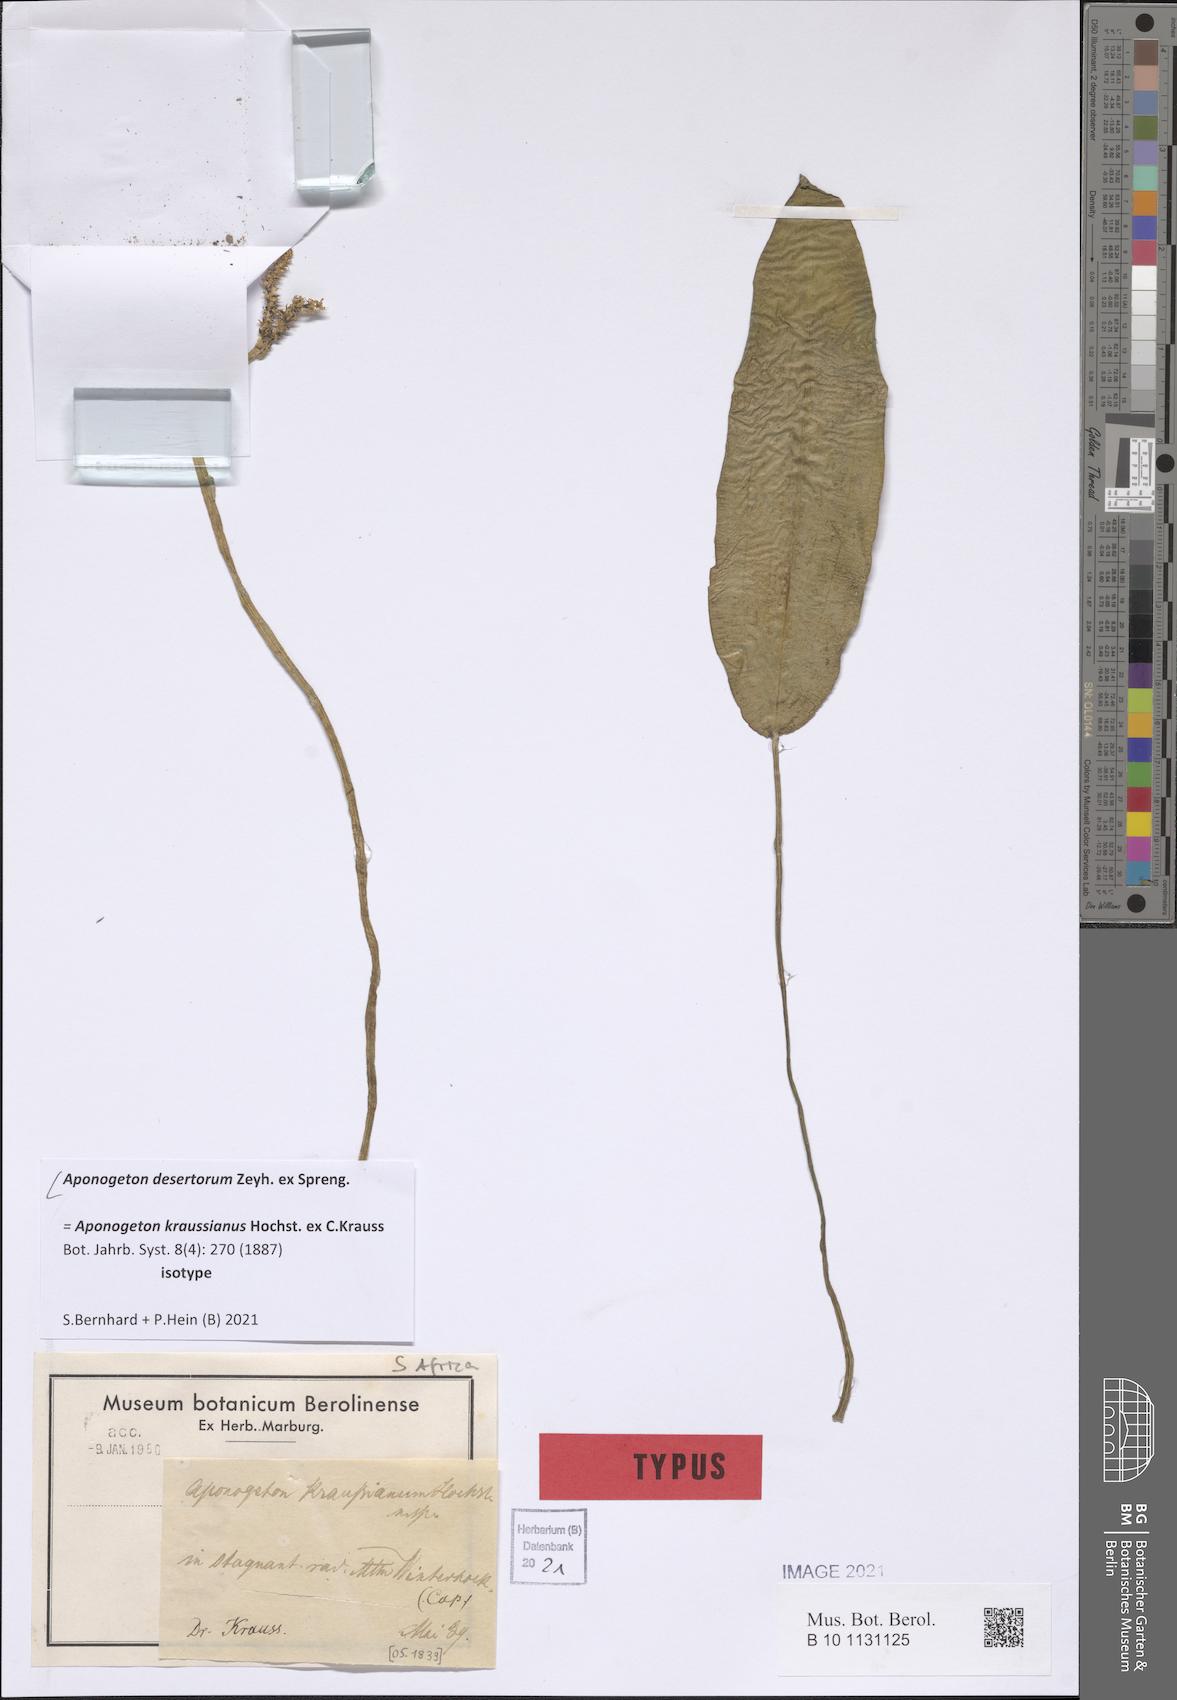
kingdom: Plantae
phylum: Tracheophyta
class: Liliopsida
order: Alismatales
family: Aponogetonaceae
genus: Aponogeton
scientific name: Aponogeton desertorum
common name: Dog-with-two-tails
